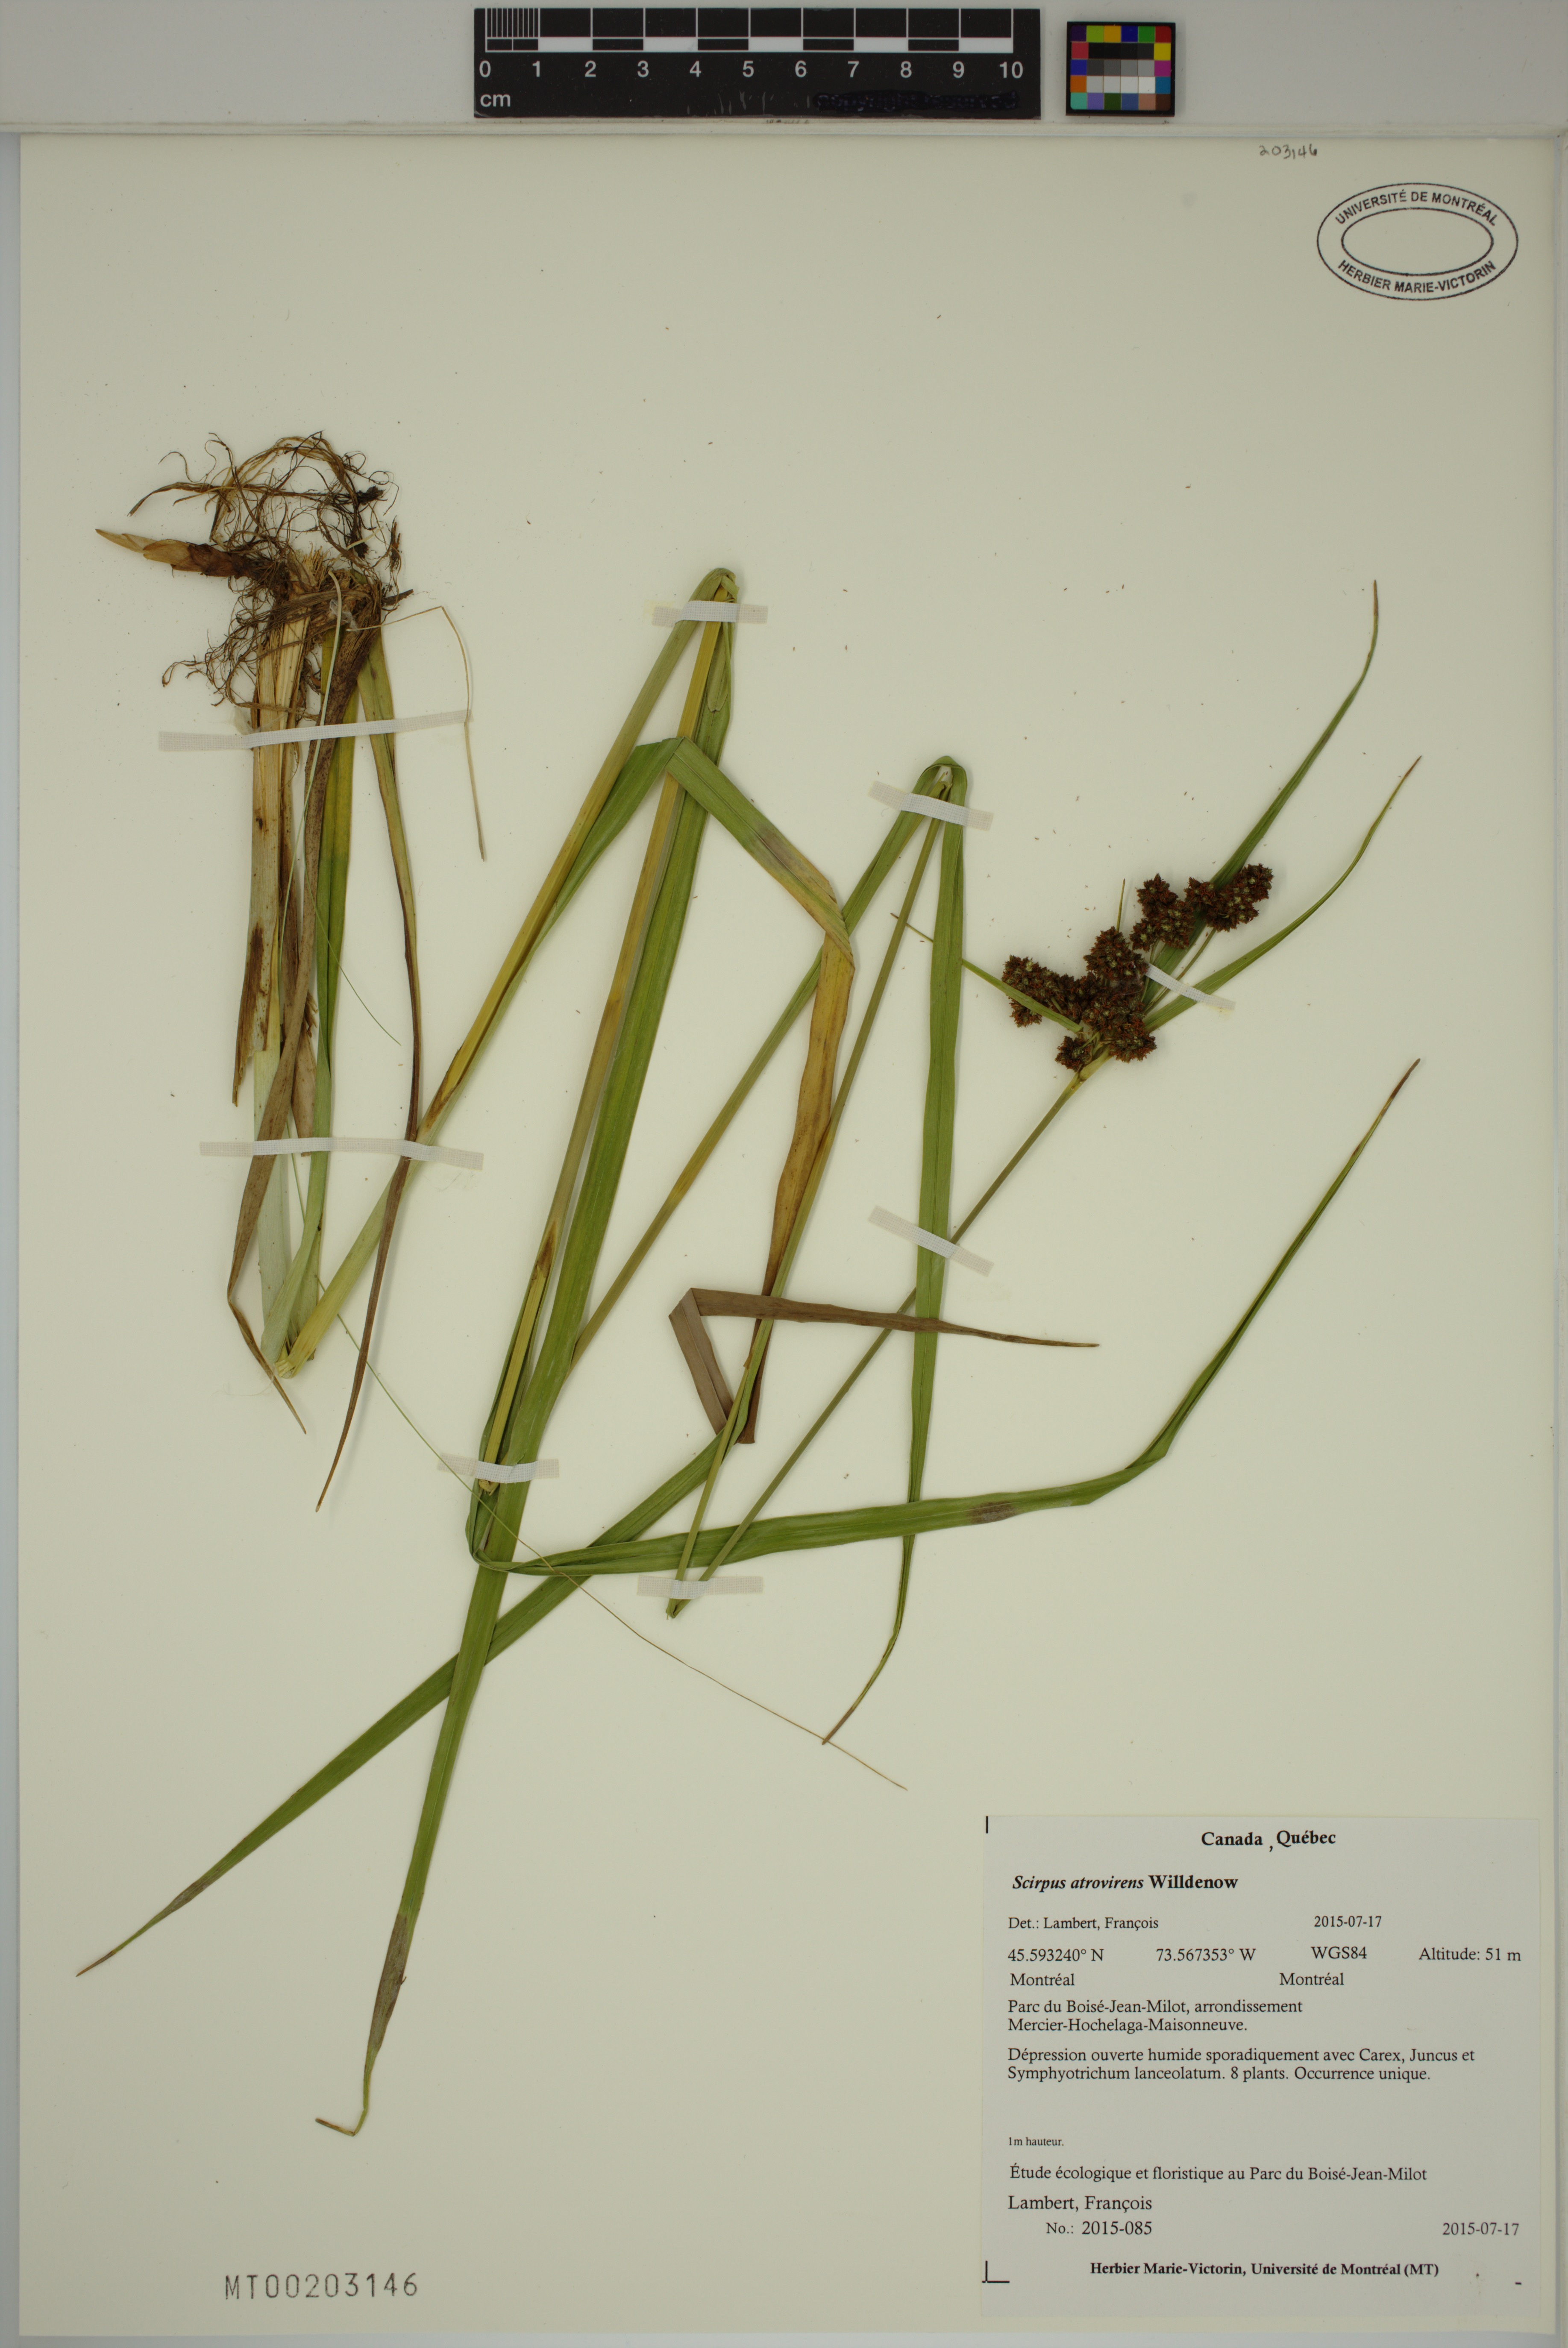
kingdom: Plantae
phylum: Tracheophyta
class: Liliopsida
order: Poales
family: Cyperaceae
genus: Scirpus
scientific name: Scirpus hattorianus
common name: Early dark-green bulrush
